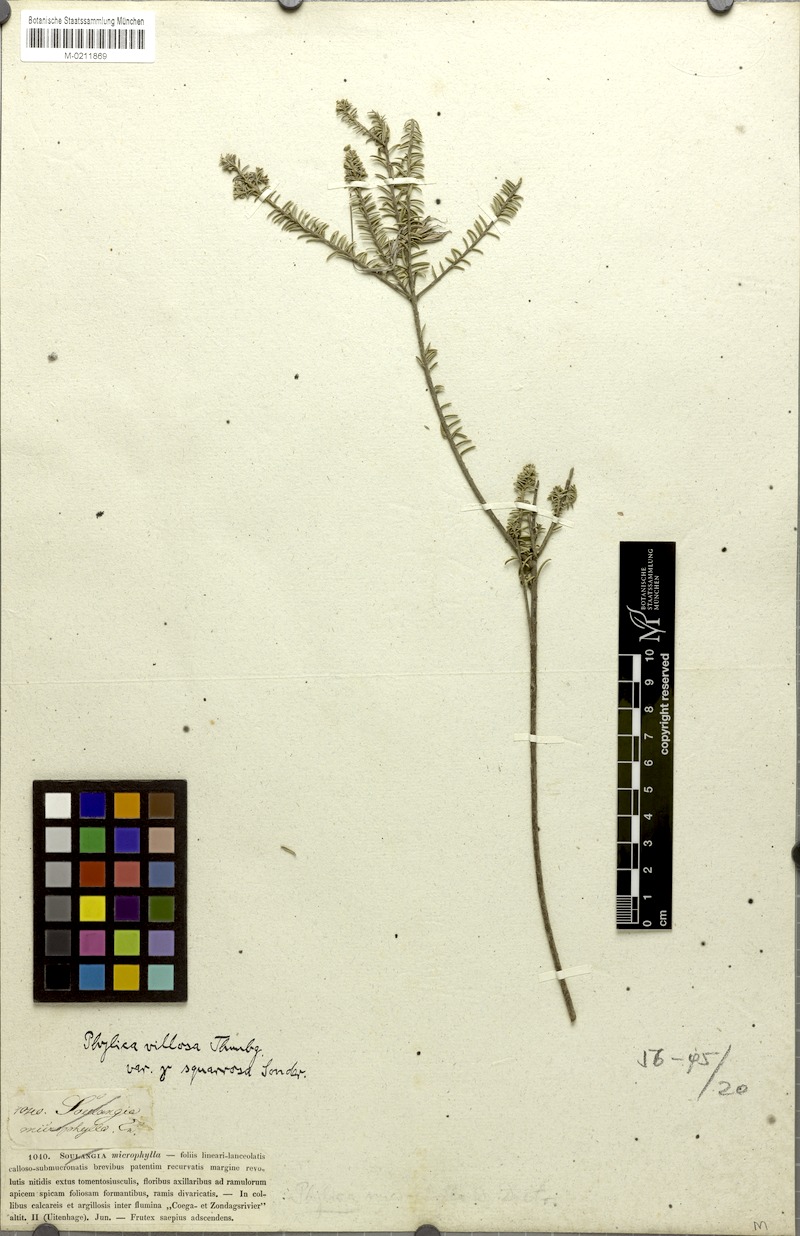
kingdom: Plantae
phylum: Tracheophyta
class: Magnoliopsida
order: Rosales
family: Rhamnaceae
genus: Phylica
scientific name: Phylica axillaris
